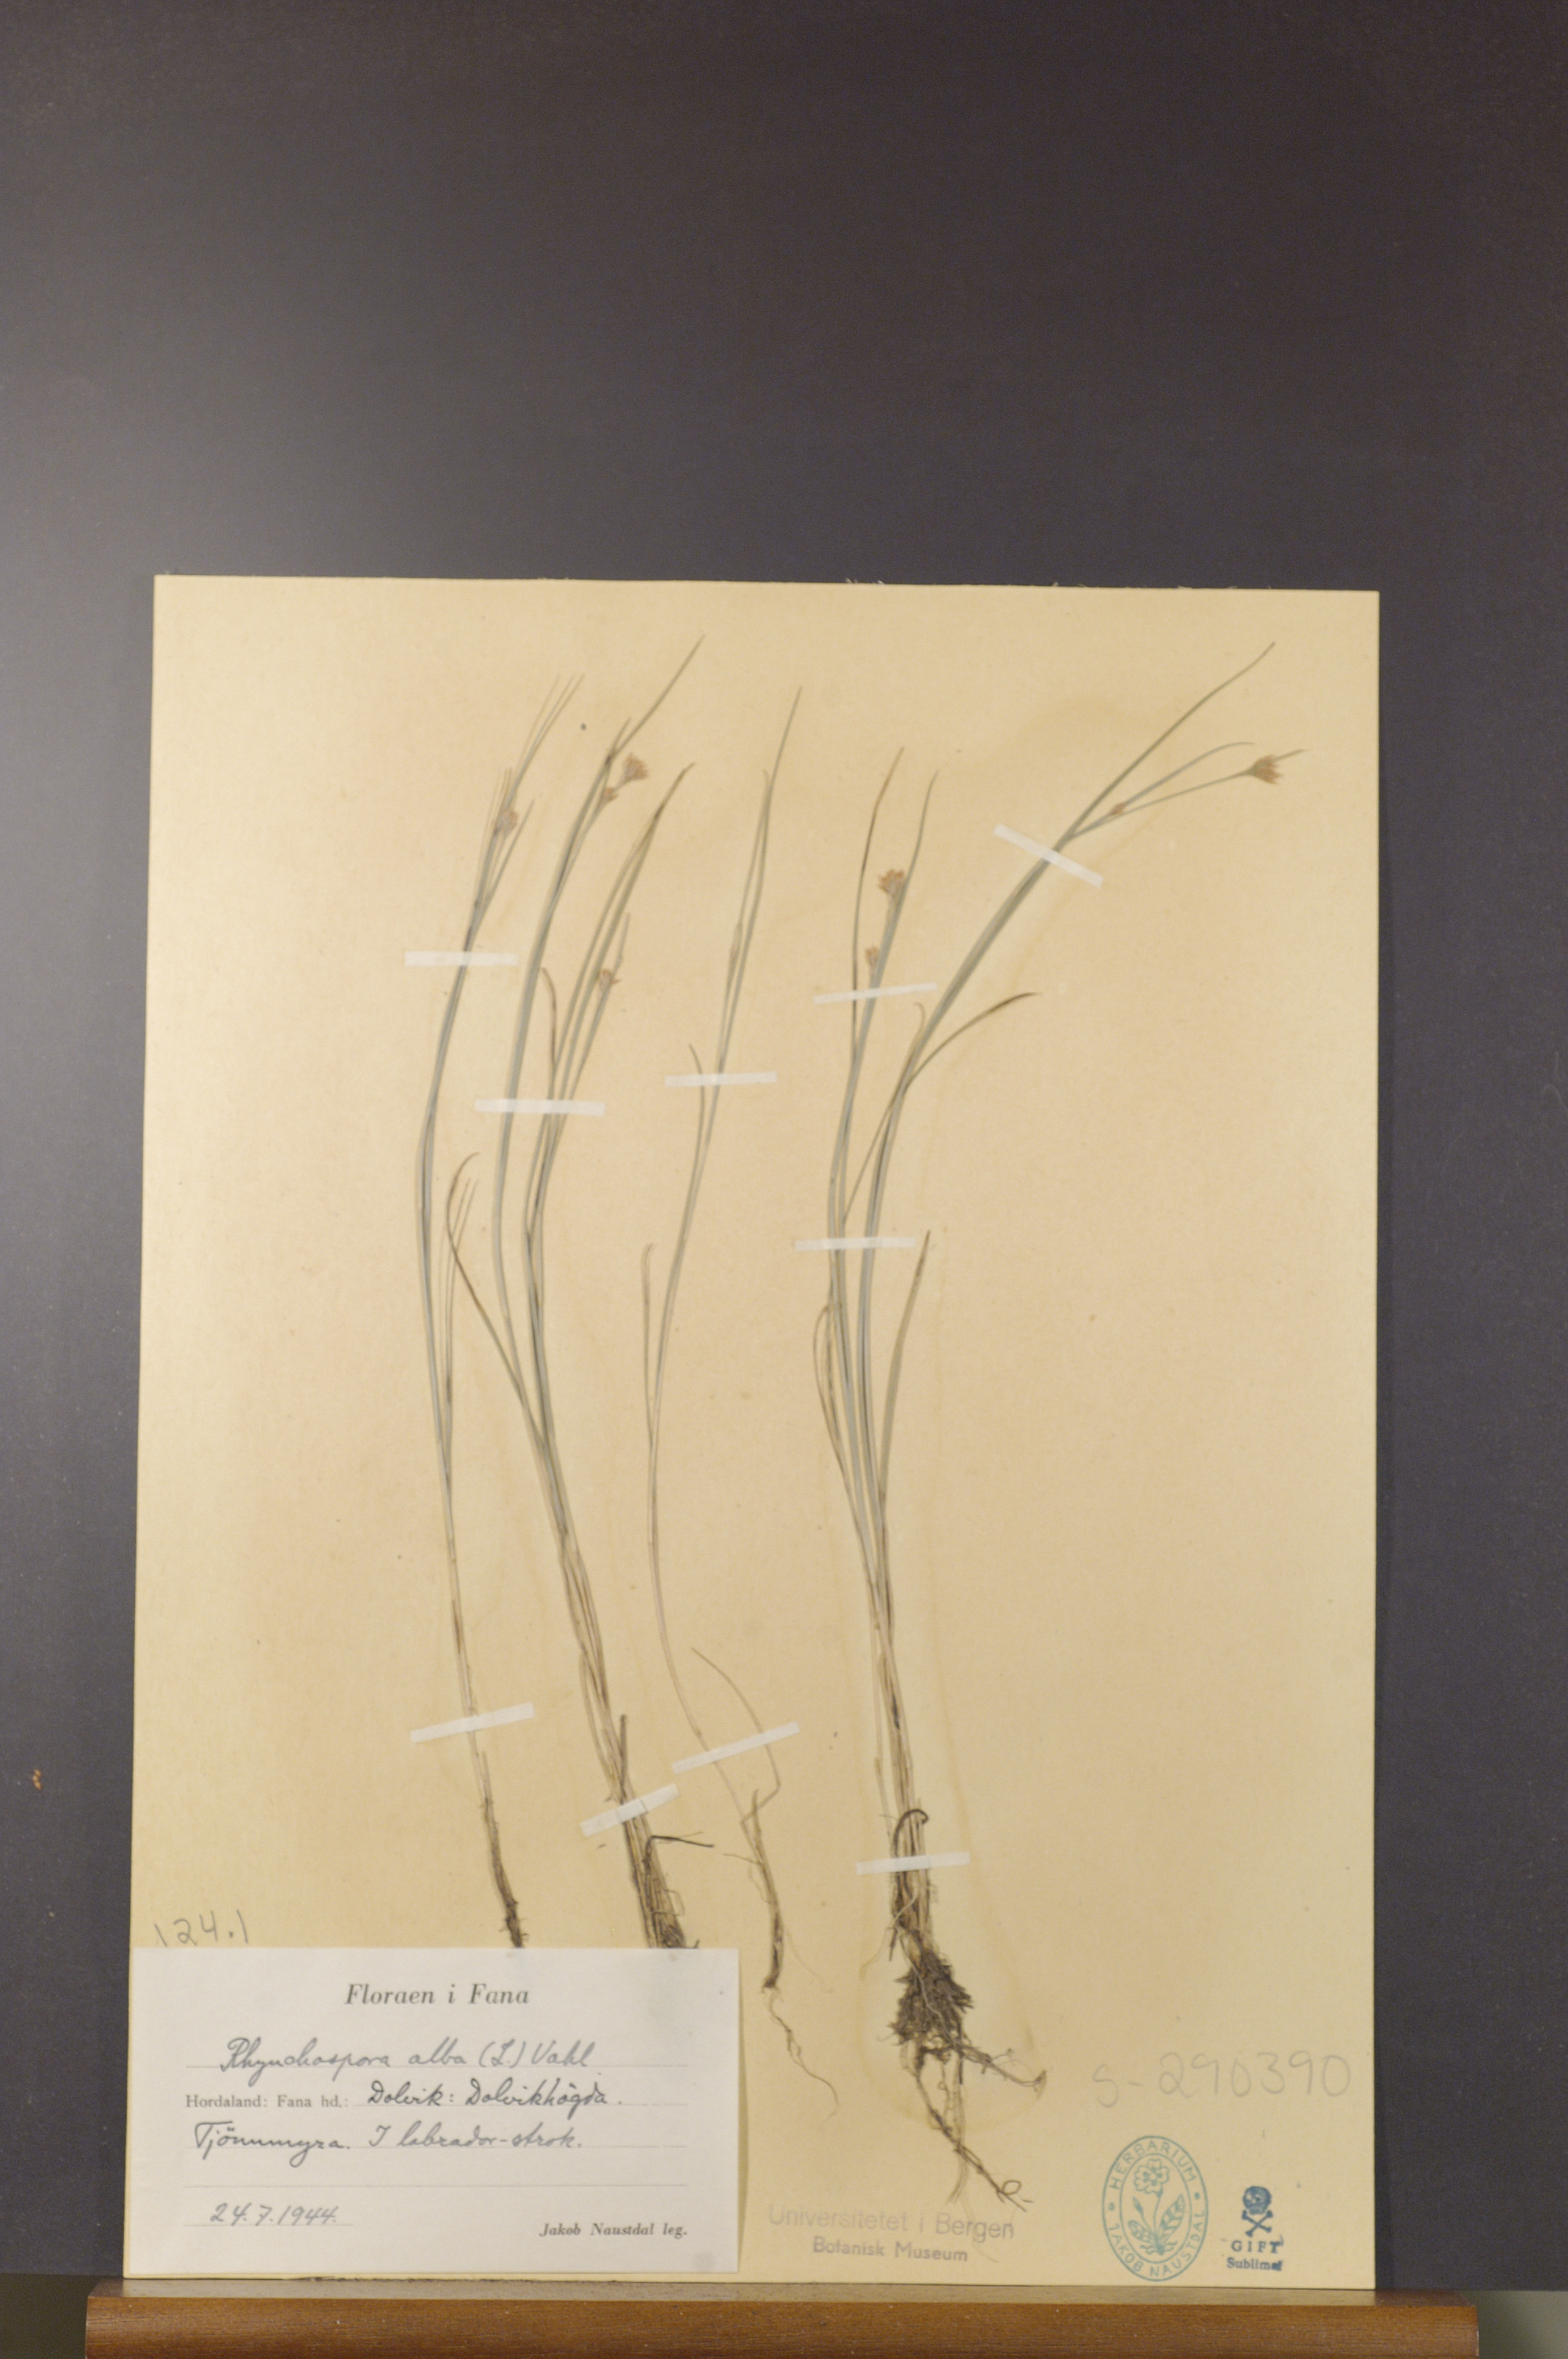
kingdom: Plantae
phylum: Tracheophyta
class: Liliopsida
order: Poales
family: Cyperaceae
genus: Rhynchospora
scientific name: Rhynchospora alba
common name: White beak-sedge
